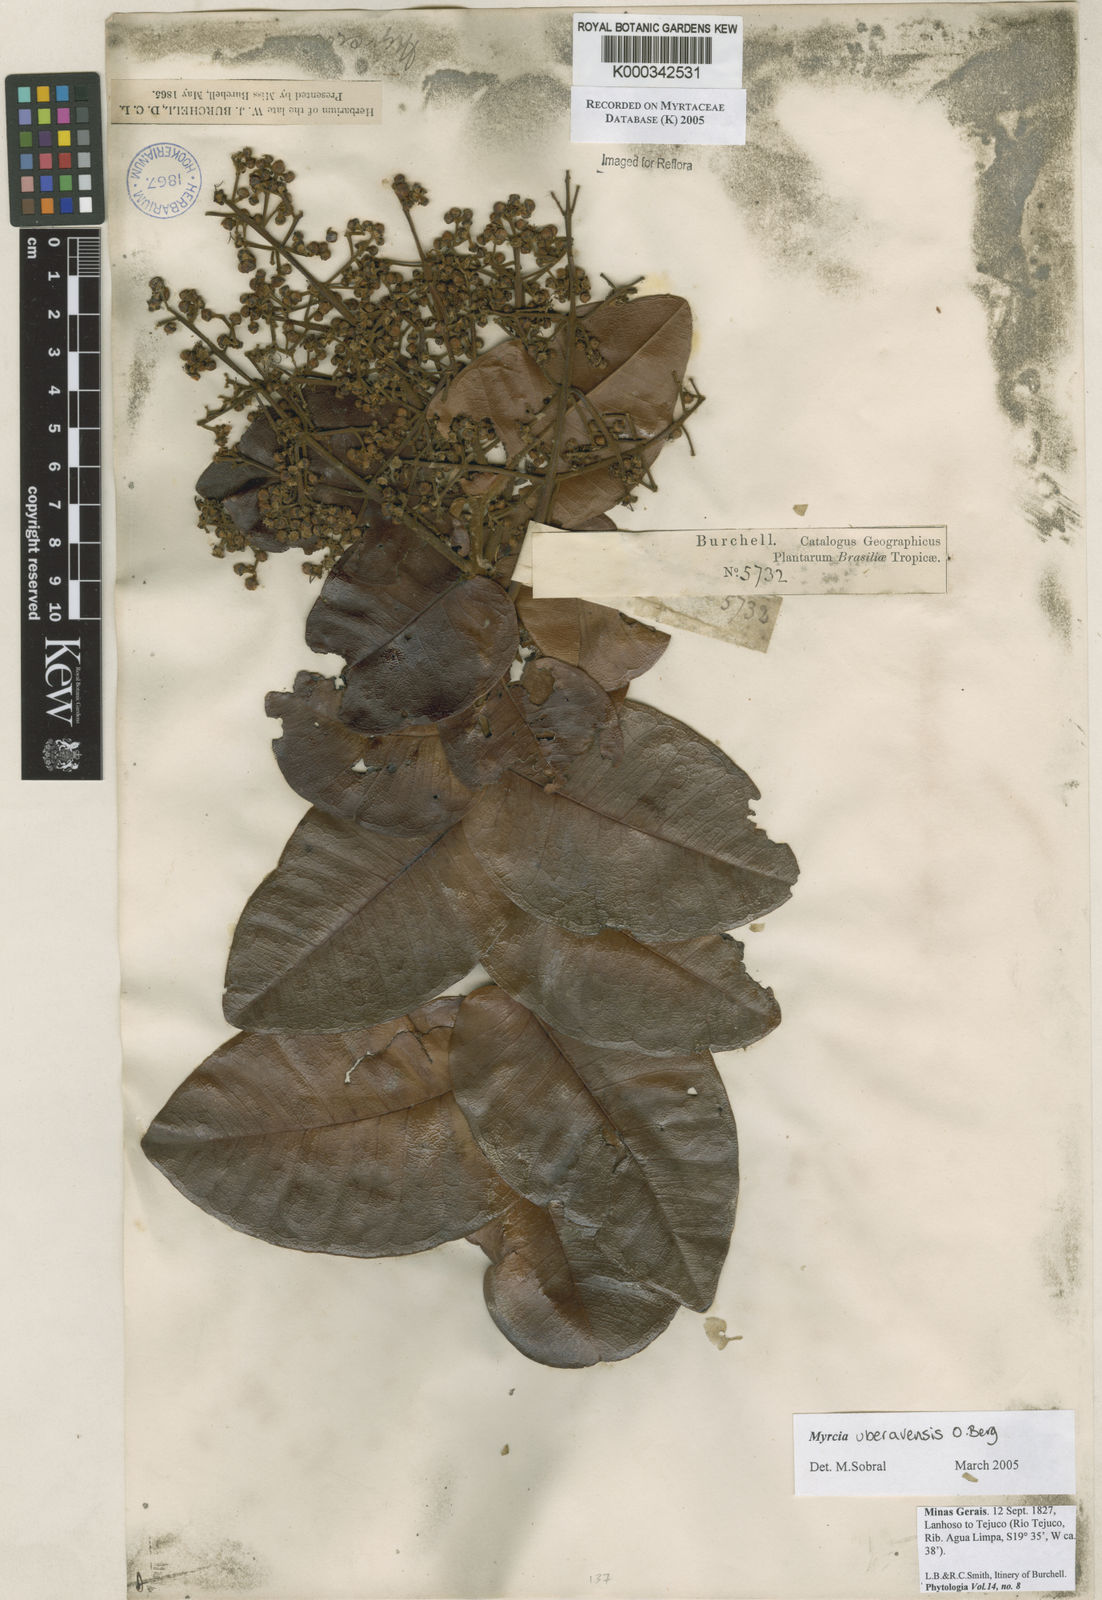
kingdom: Plantae
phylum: Tracheophyta
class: Magnoliopsida
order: Myrtales
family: Myrtaceae
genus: Myrcia
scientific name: Myrcia uberavensis
